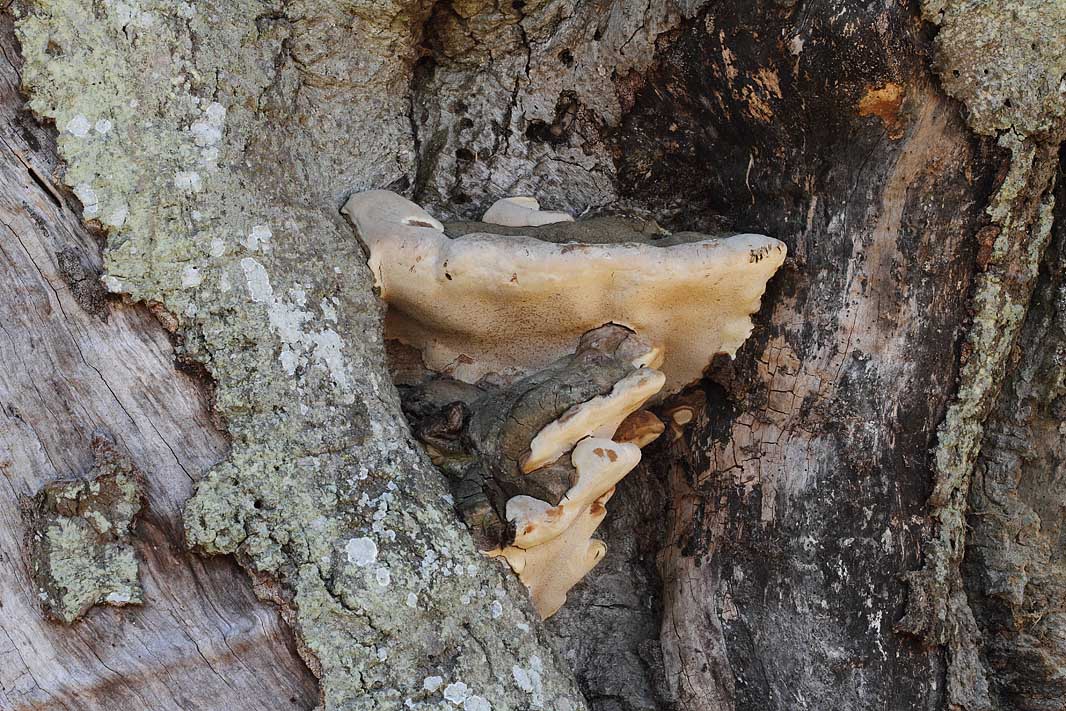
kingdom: Fungi
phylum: Basidiomycota
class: Agaricomycetes
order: Polyporales
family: Polyporaceae
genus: Ganoderma
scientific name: Ganoderma adspersum
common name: grov lakporesvamp
